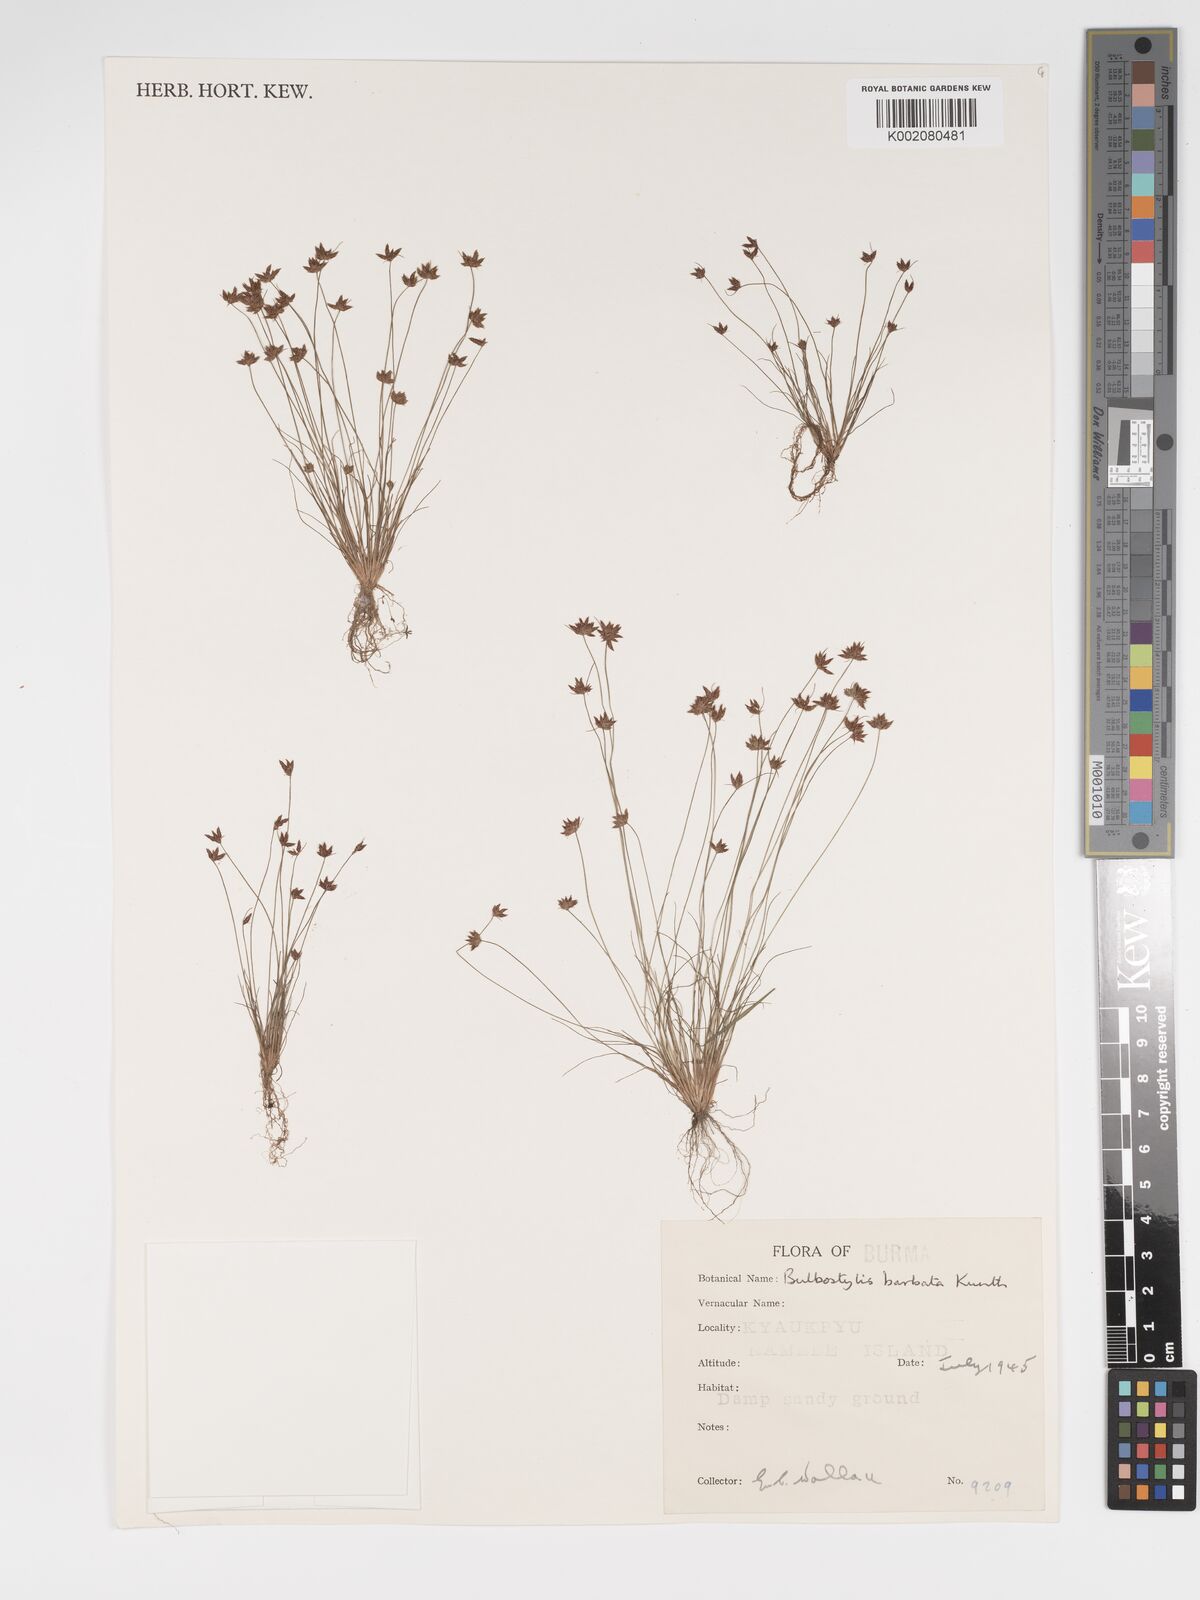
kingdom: Plantae
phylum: Tracheophyta
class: Liliopsida
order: Poales
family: Cyperaceae
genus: Bulbostylis
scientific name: Bulbostylis barbata
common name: Watergrass
